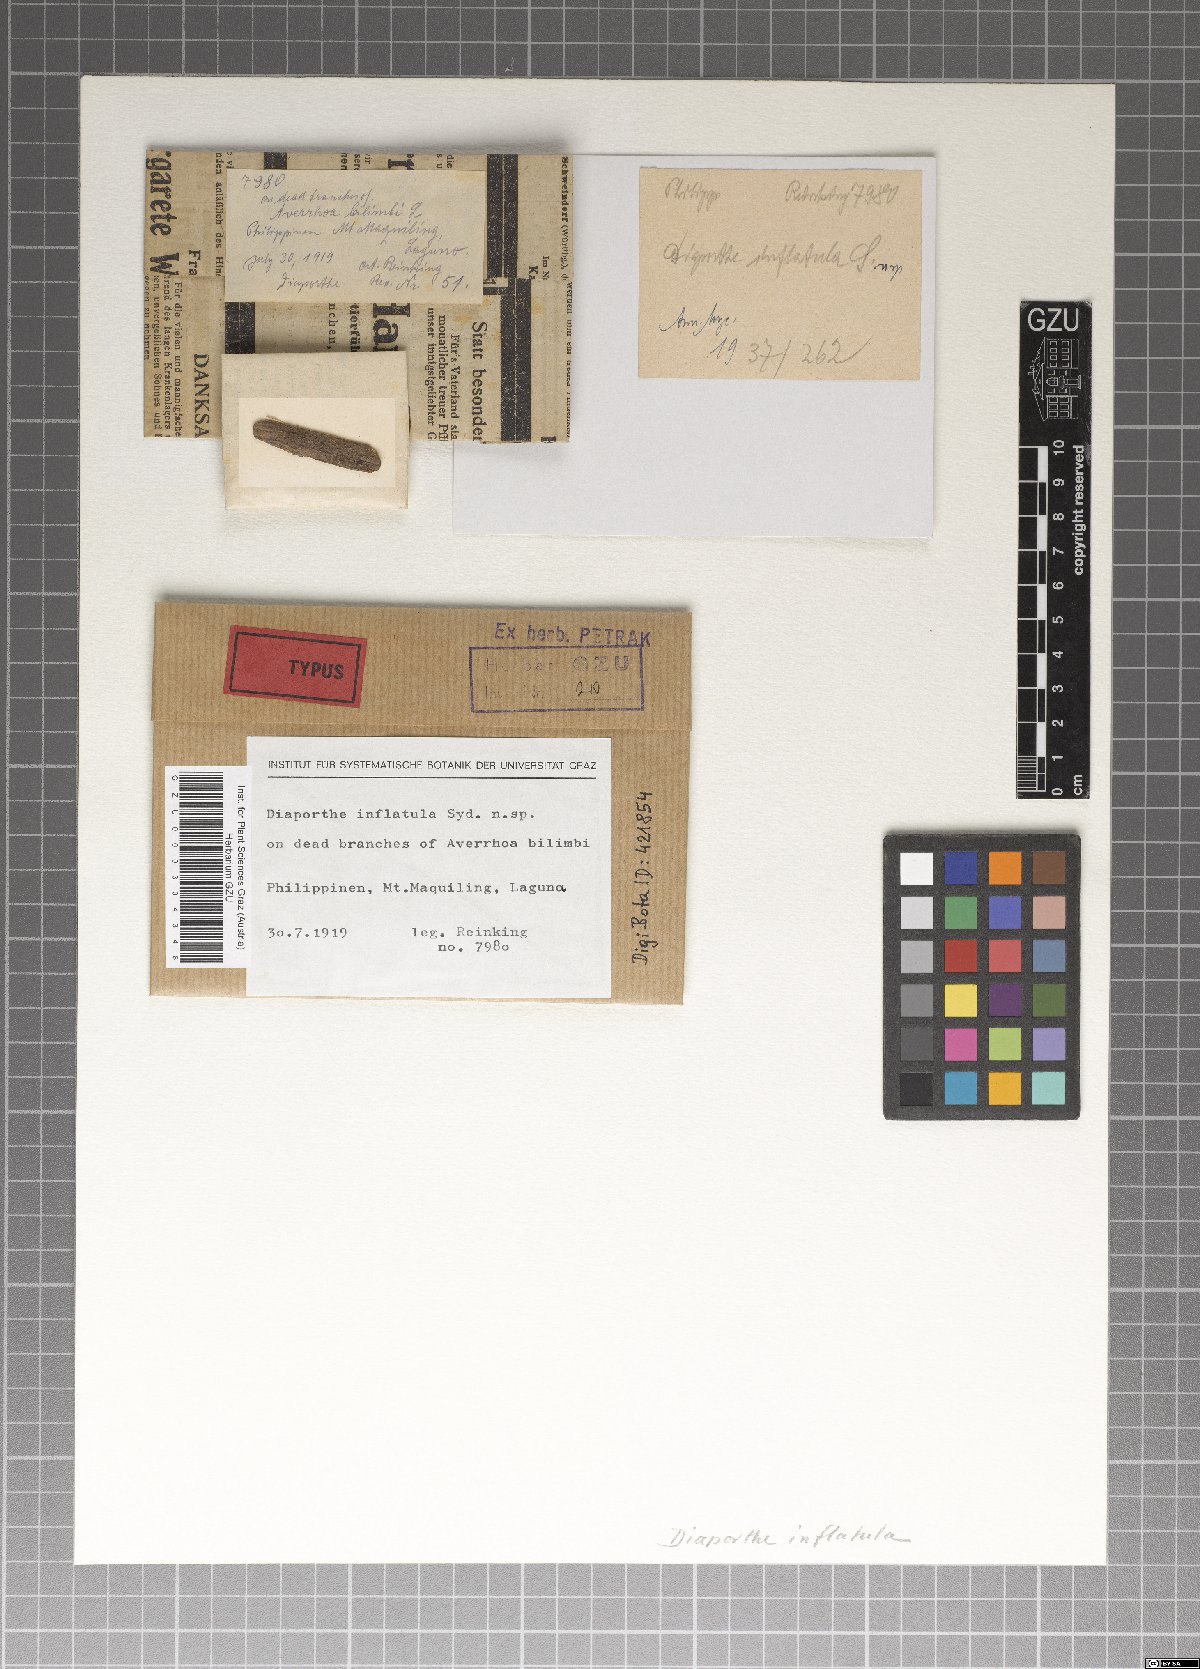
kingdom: Fungi
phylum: Ascomycota
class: Sordariomycetes
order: Diaporthales
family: Diaporthaceae
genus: Diaporthe
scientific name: Diaporthe inflatula
